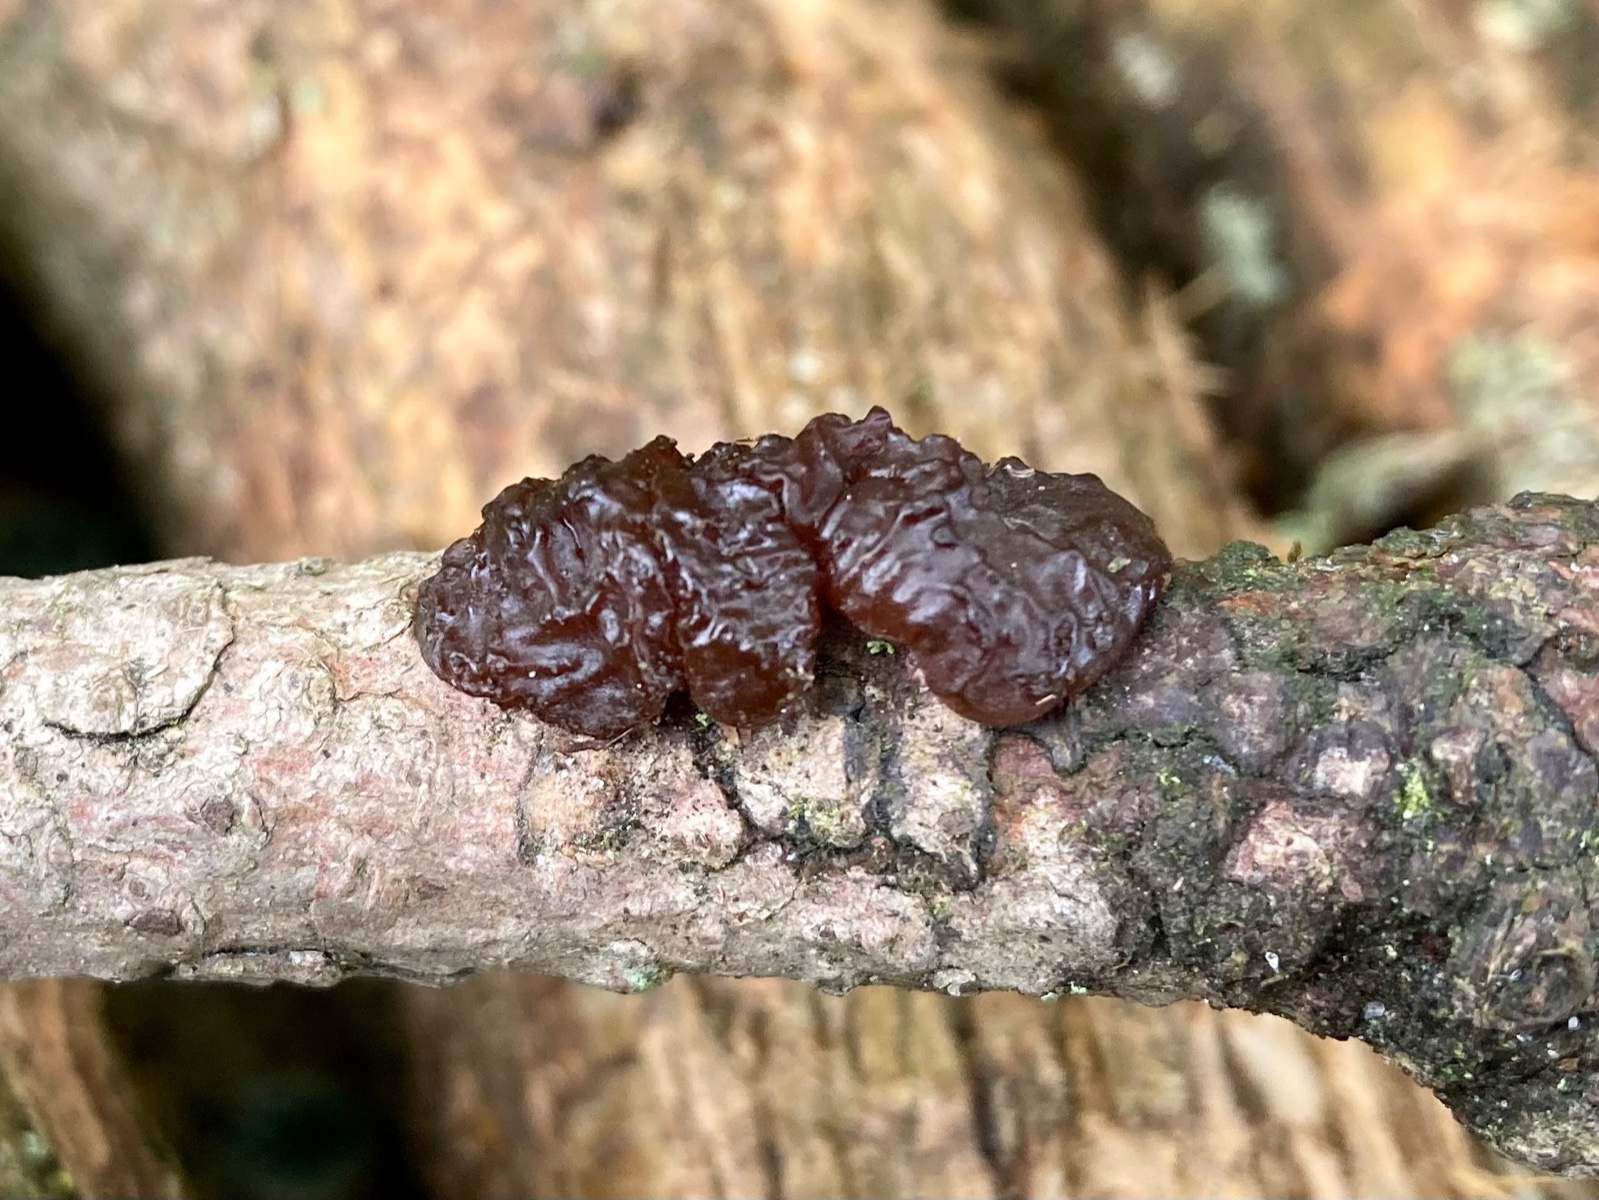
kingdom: Fungi
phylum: Basidiomycota
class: Agaricomycetes
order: Auriculariales
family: Auriculariaceae
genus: Exidia
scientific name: Exidia saccharina
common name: kandis-bævretop
